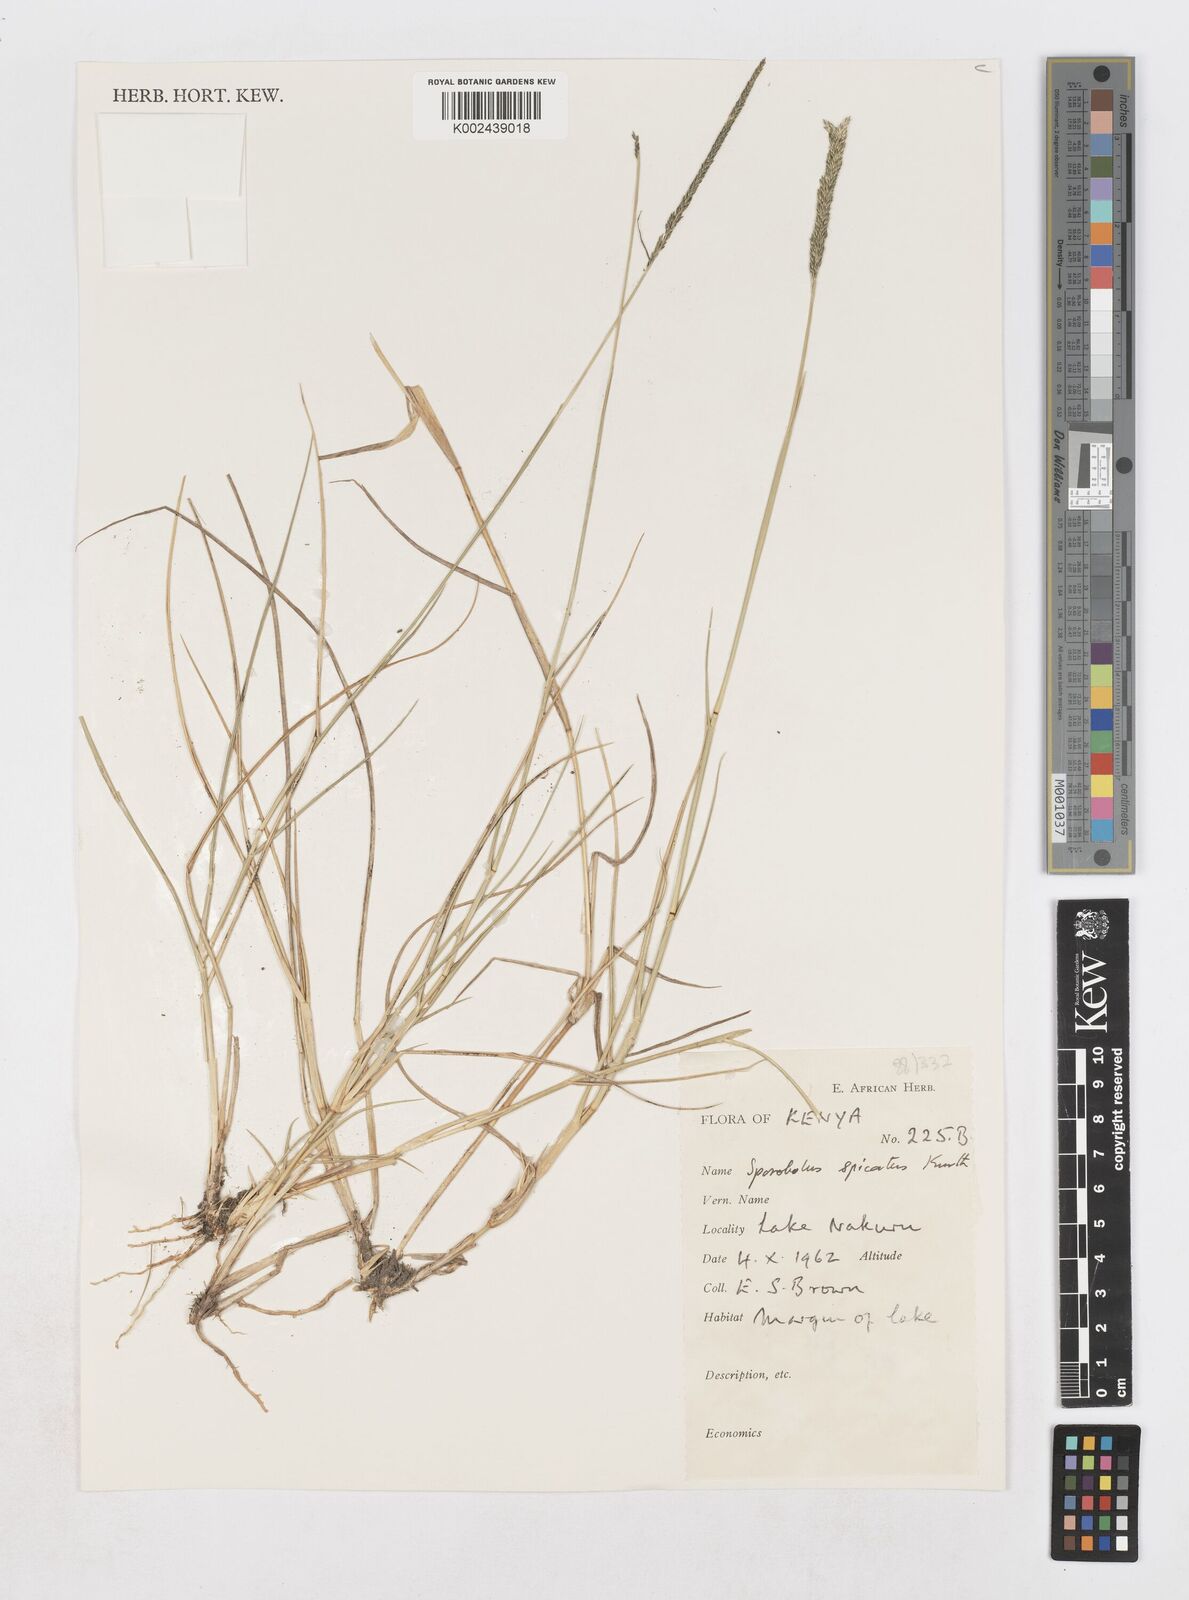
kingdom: Plantae
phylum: Tracheophyta
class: Liliopsida
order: Poales
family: Poaceae
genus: Sporobolus
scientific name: Sporobolus spicatus
